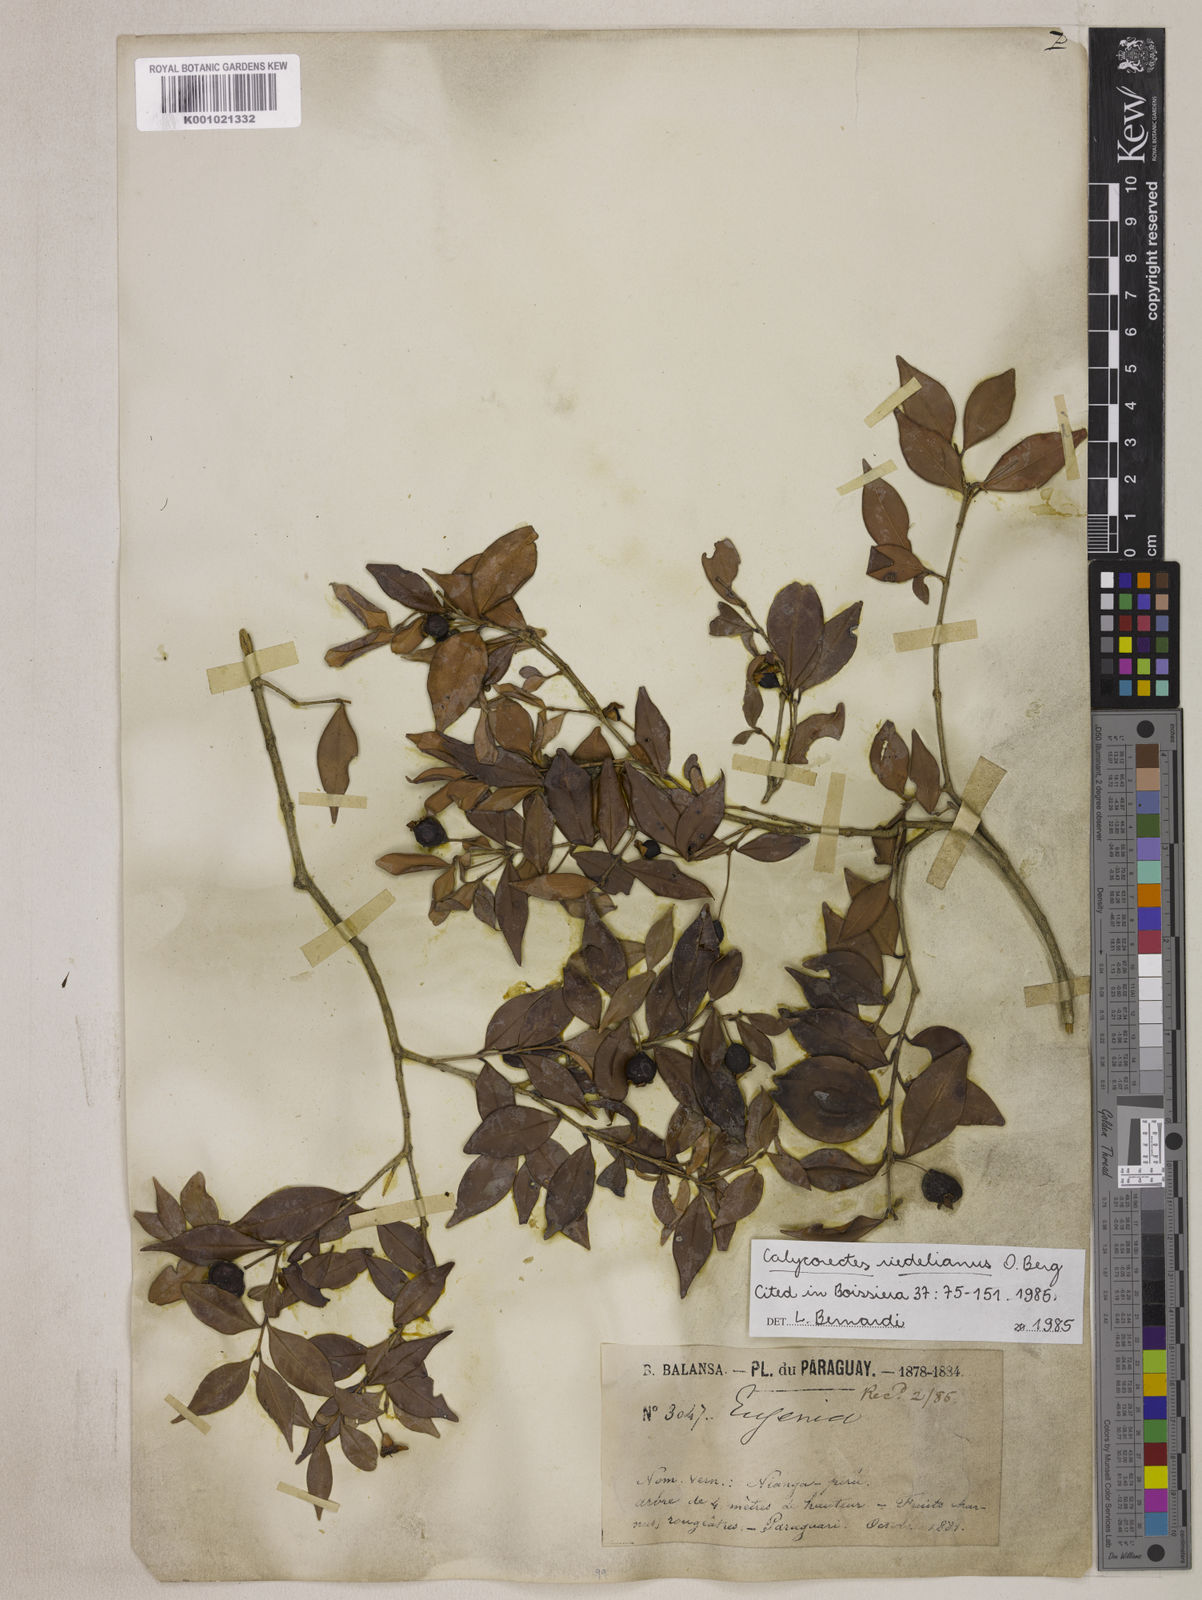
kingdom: Plantae
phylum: Tracheophyta
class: Magnoliopsida
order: Myrtales
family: Myrtaceae
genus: Eugenia
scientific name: Eugenia subterminalis
